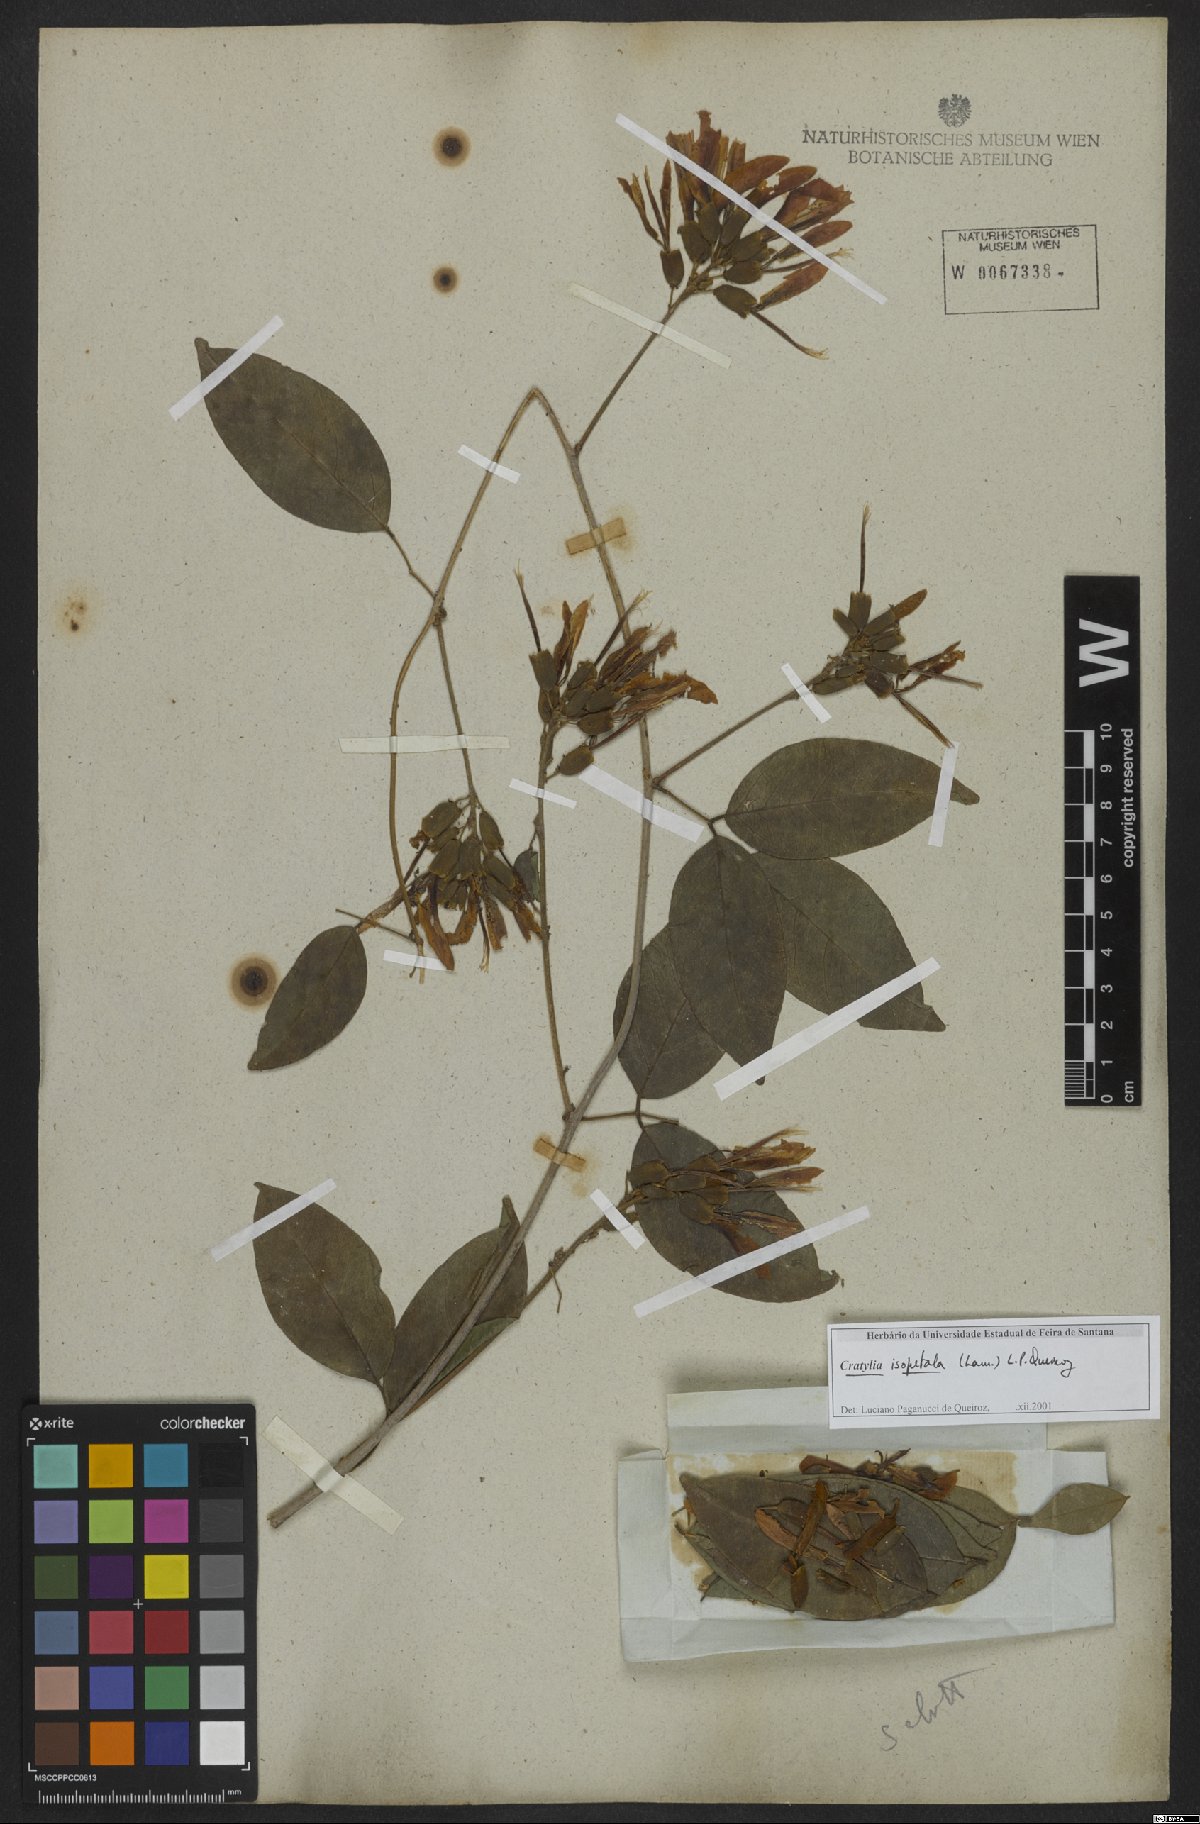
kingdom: Plantae
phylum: Tracheophyta
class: Magnoliopsida
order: Fabales
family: Fabaceae
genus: Cratylia
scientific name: Cratylia isopetala
